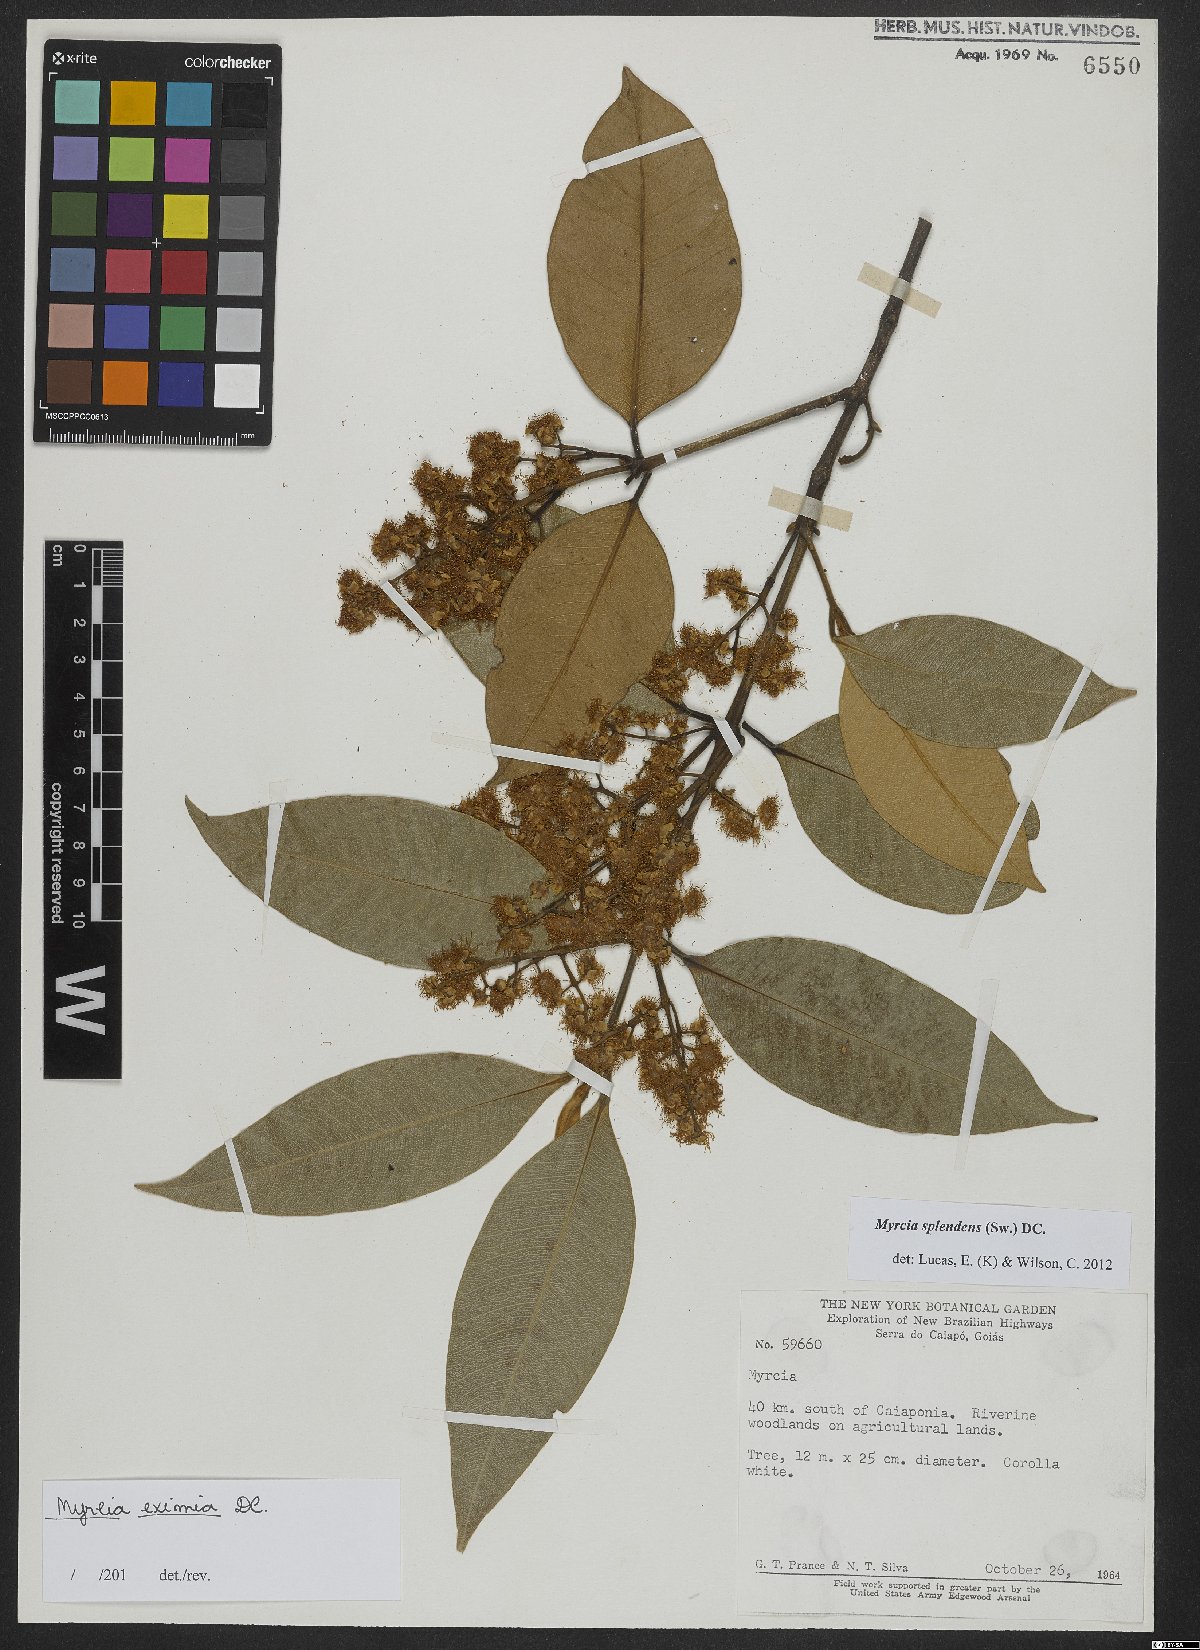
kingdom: Plantae
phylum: Tracheophyta
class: Magnoliopsida
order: Myrtales
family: Myrtaceae
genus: Myrcia
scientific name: Myrcia eximia
